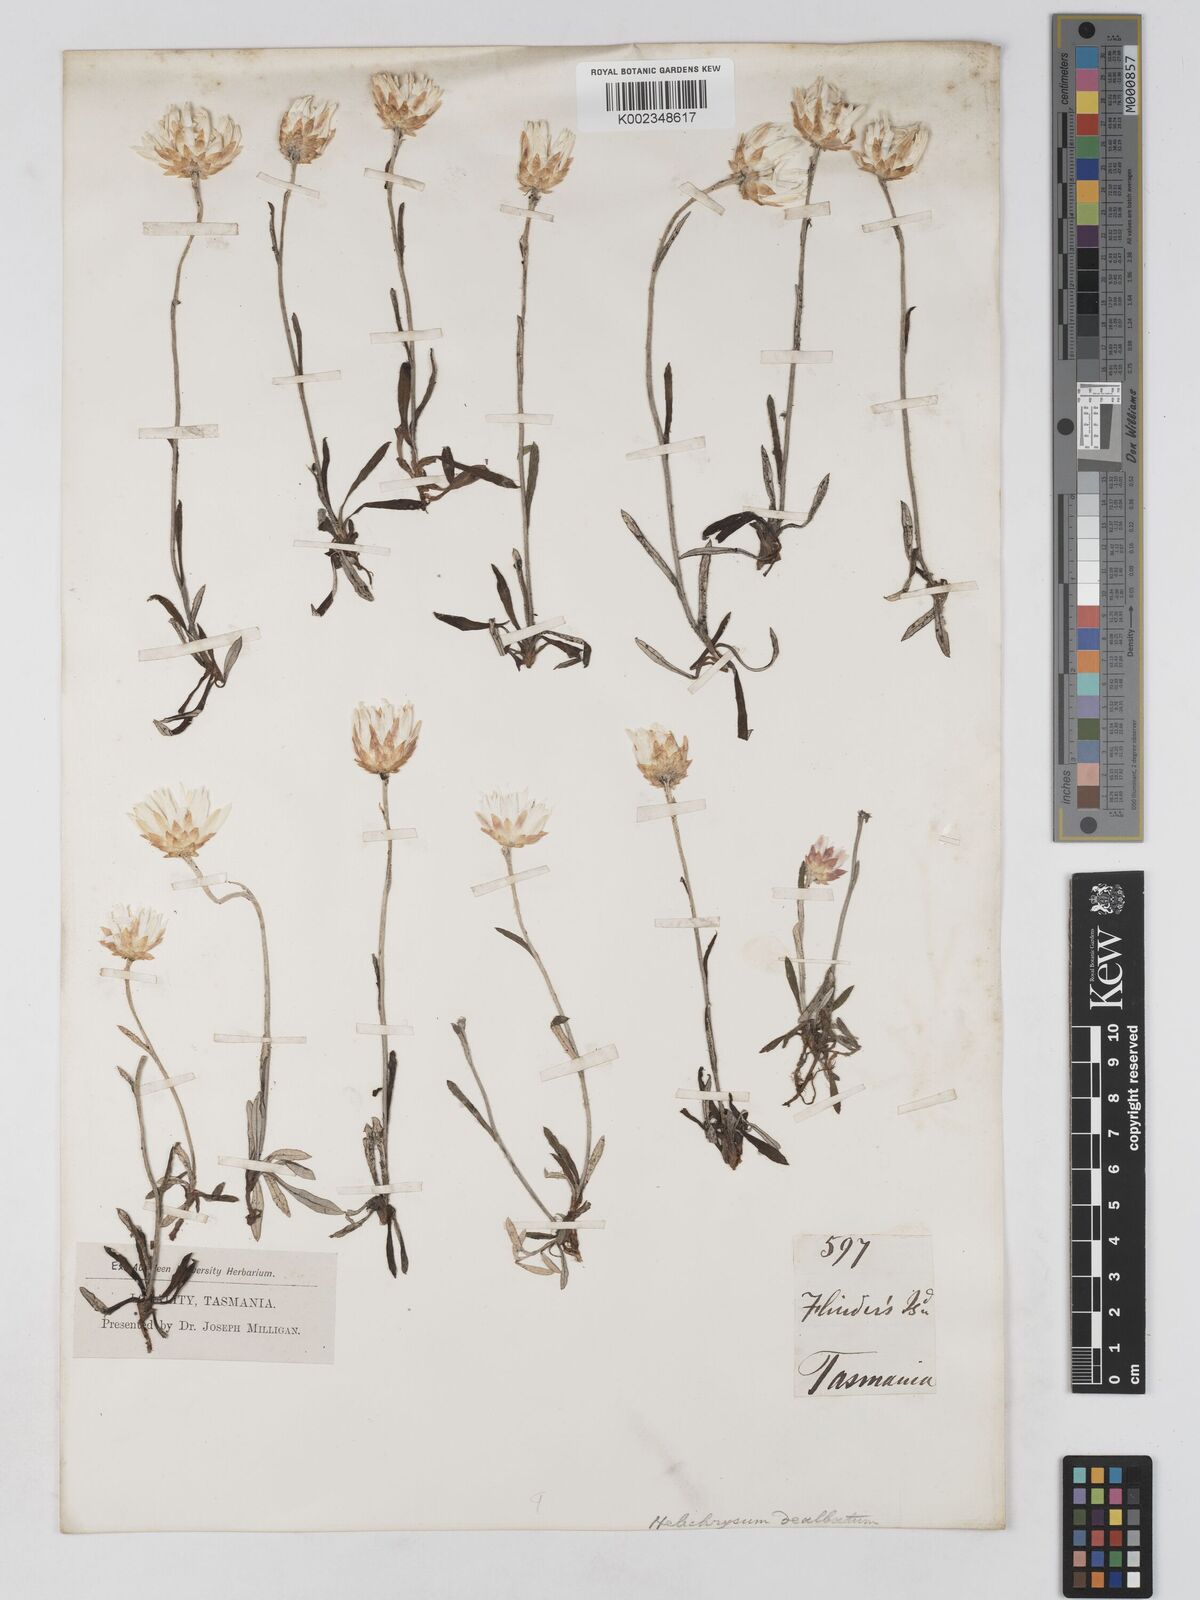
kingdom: Plantae
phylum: Tracheophyta
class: Magnoliopsida
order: Asterales
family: Asteraceae
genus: Argentipallium
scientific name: Argentipallium dealbatum
